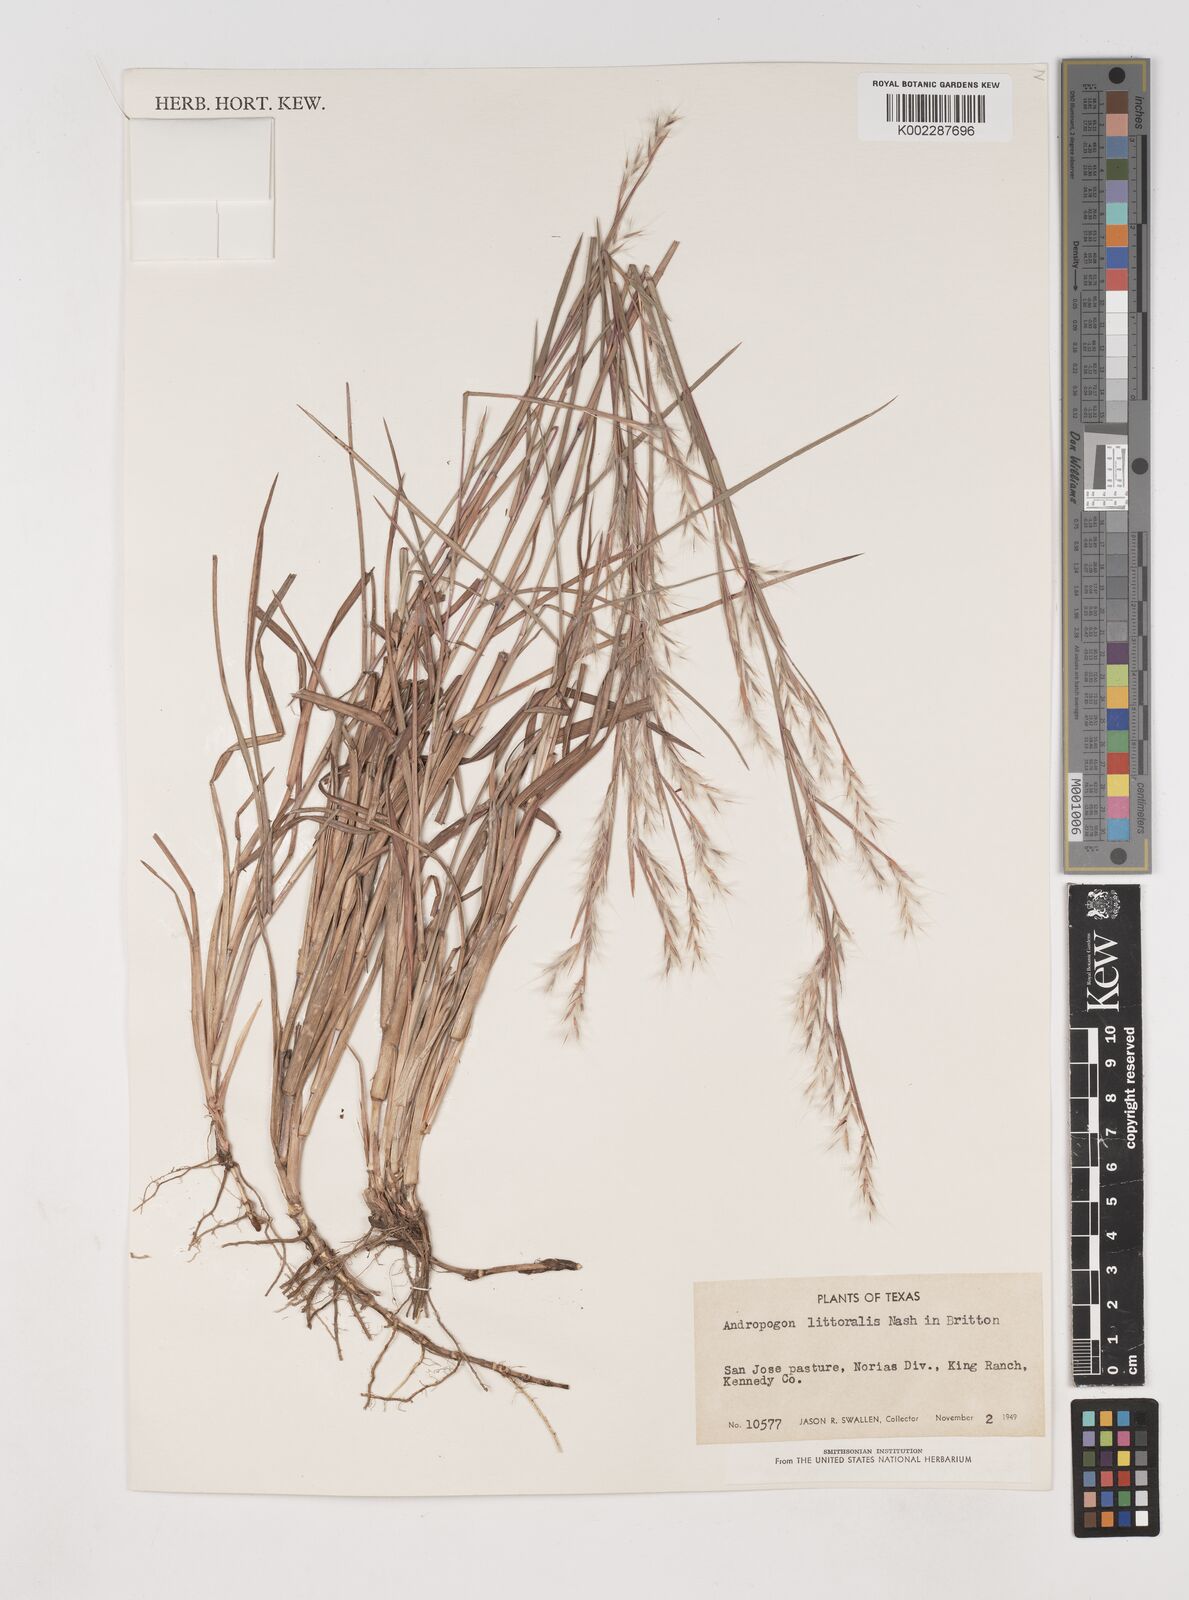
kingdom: Plantae
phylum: Tracheophyta
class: Liliopsida
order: Poales
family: Poaceae
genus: Schizachyrium
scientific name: Schizachyrium scoparium
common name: Little bluestem
